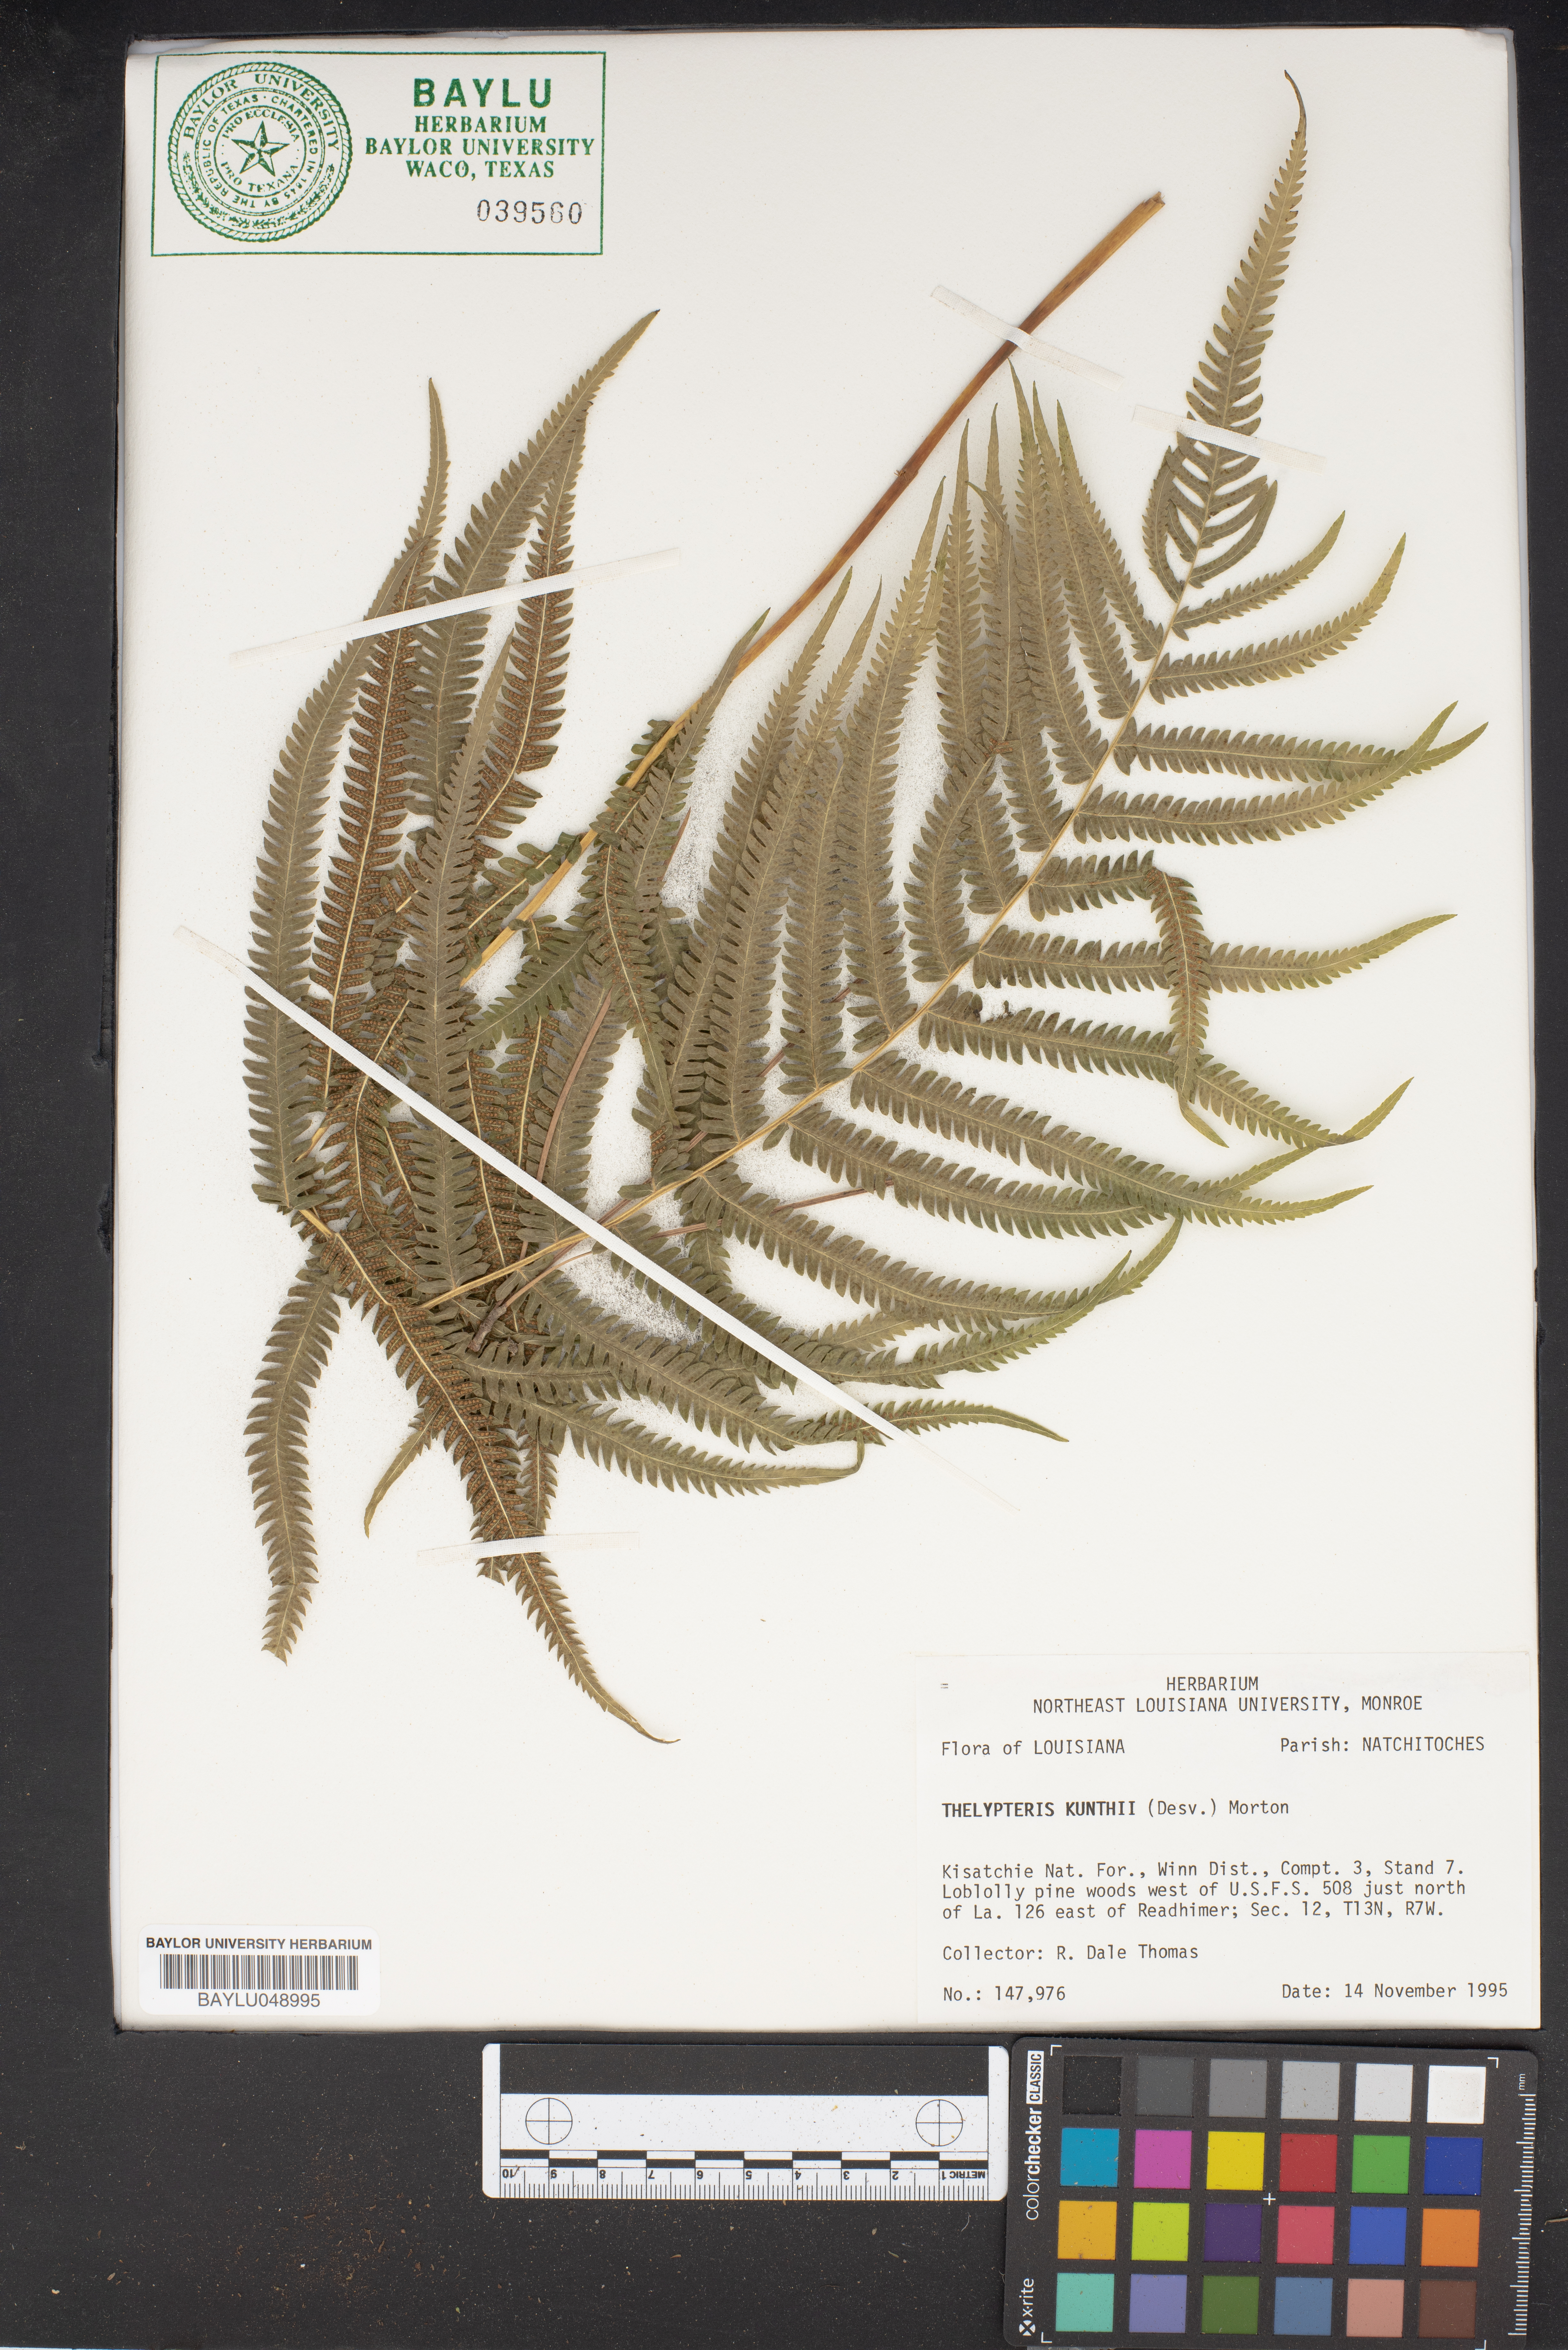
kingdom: Plantae
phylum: Tracheophyta
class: Polypodiopsida
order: Polypodiales
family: Thelypteridaceae
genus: Pelazoneuron
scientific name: Pelazoneuron kunthii
